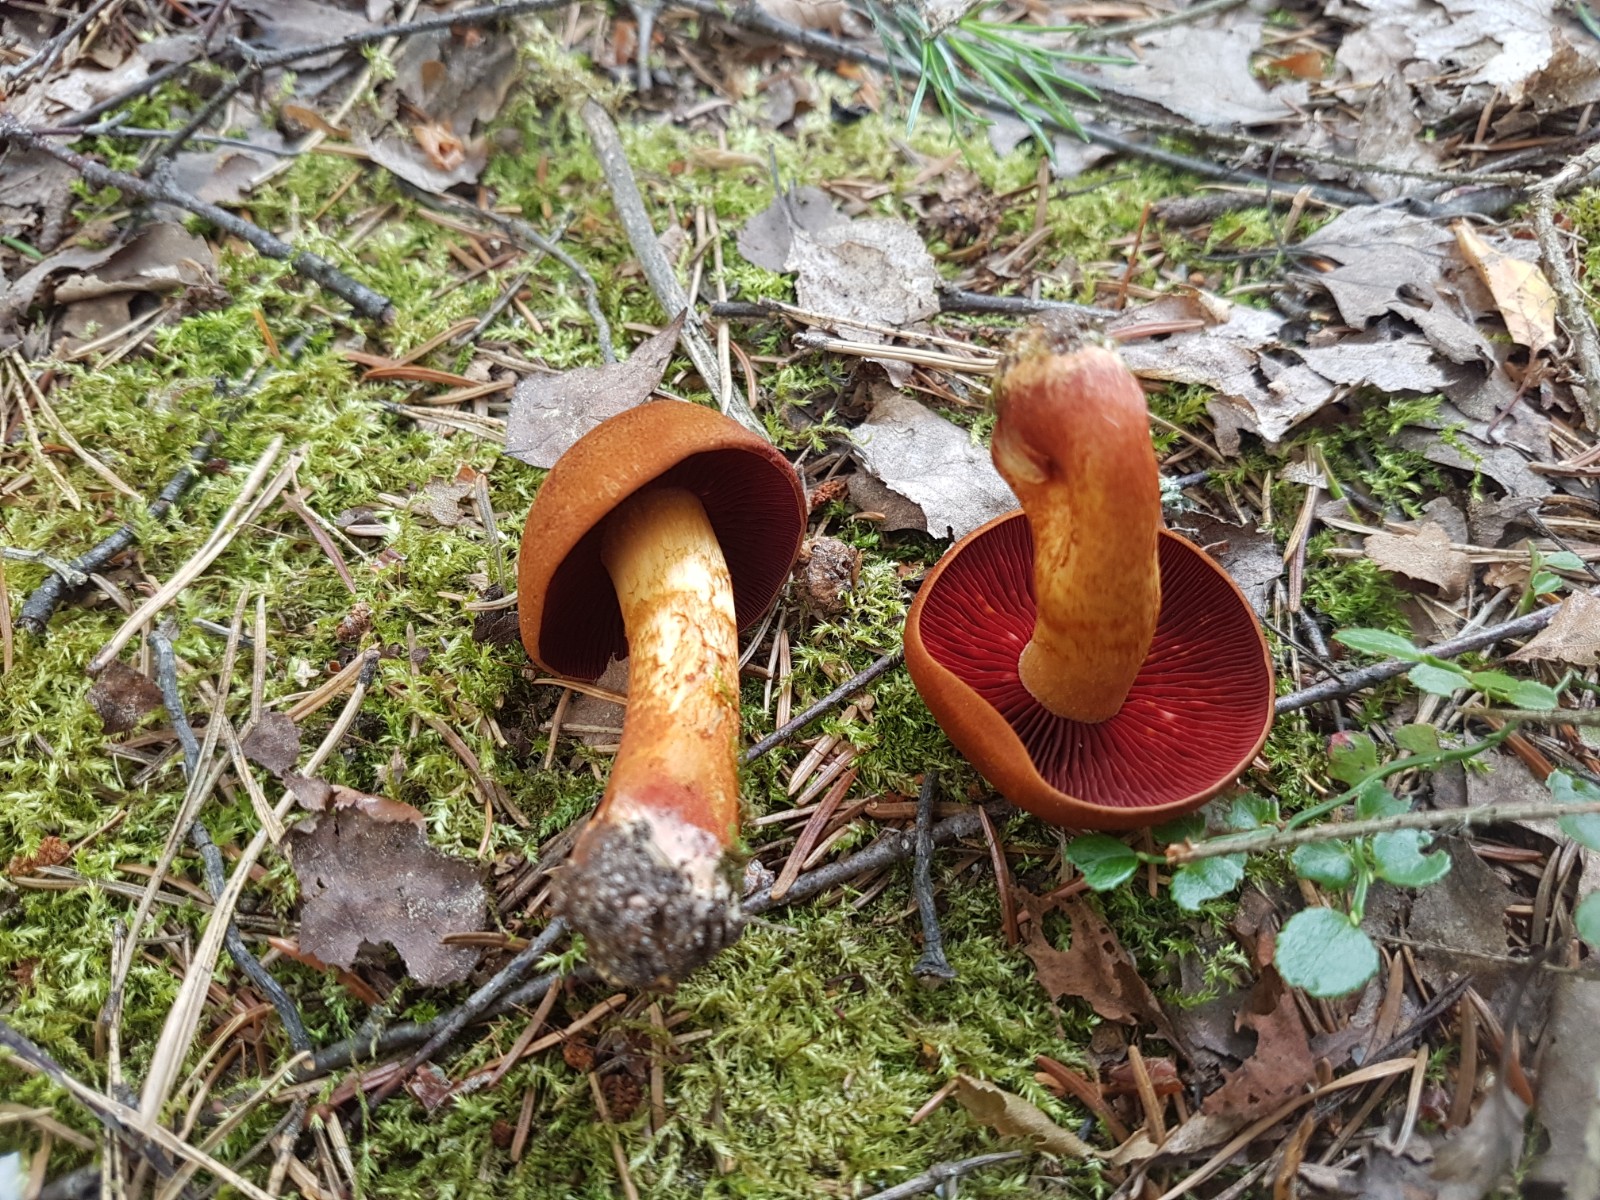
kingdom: Fungi
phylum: Basidiomycota
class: Agaricomycetes
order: Agaricales
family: Cortinariaceae
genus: Cortinarius
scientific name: Cortinarius purpureus
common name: brunrød slørhat
